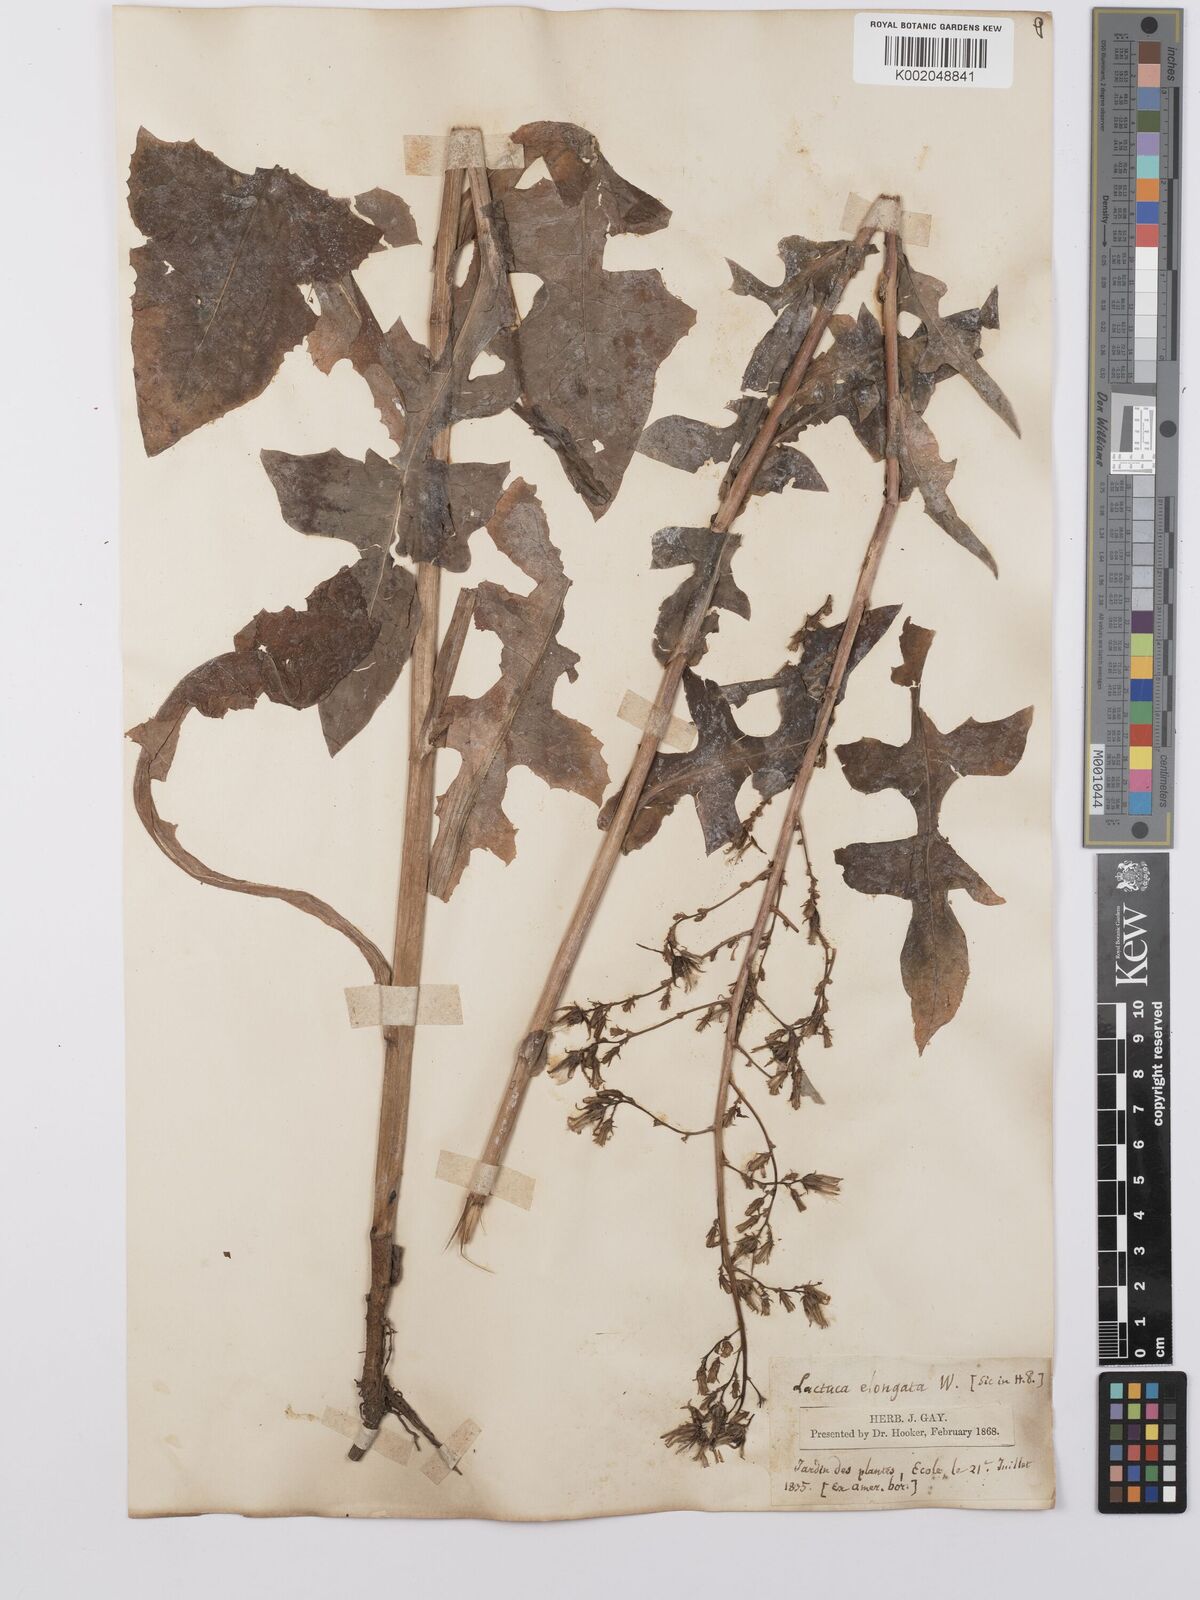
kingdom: Plantae
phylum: Tracheophyta
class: Magnoliopsida
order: Asterales
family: Asteraceae
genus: Lactuca
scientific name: Lactuca canadensis
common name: Canada lettuce
